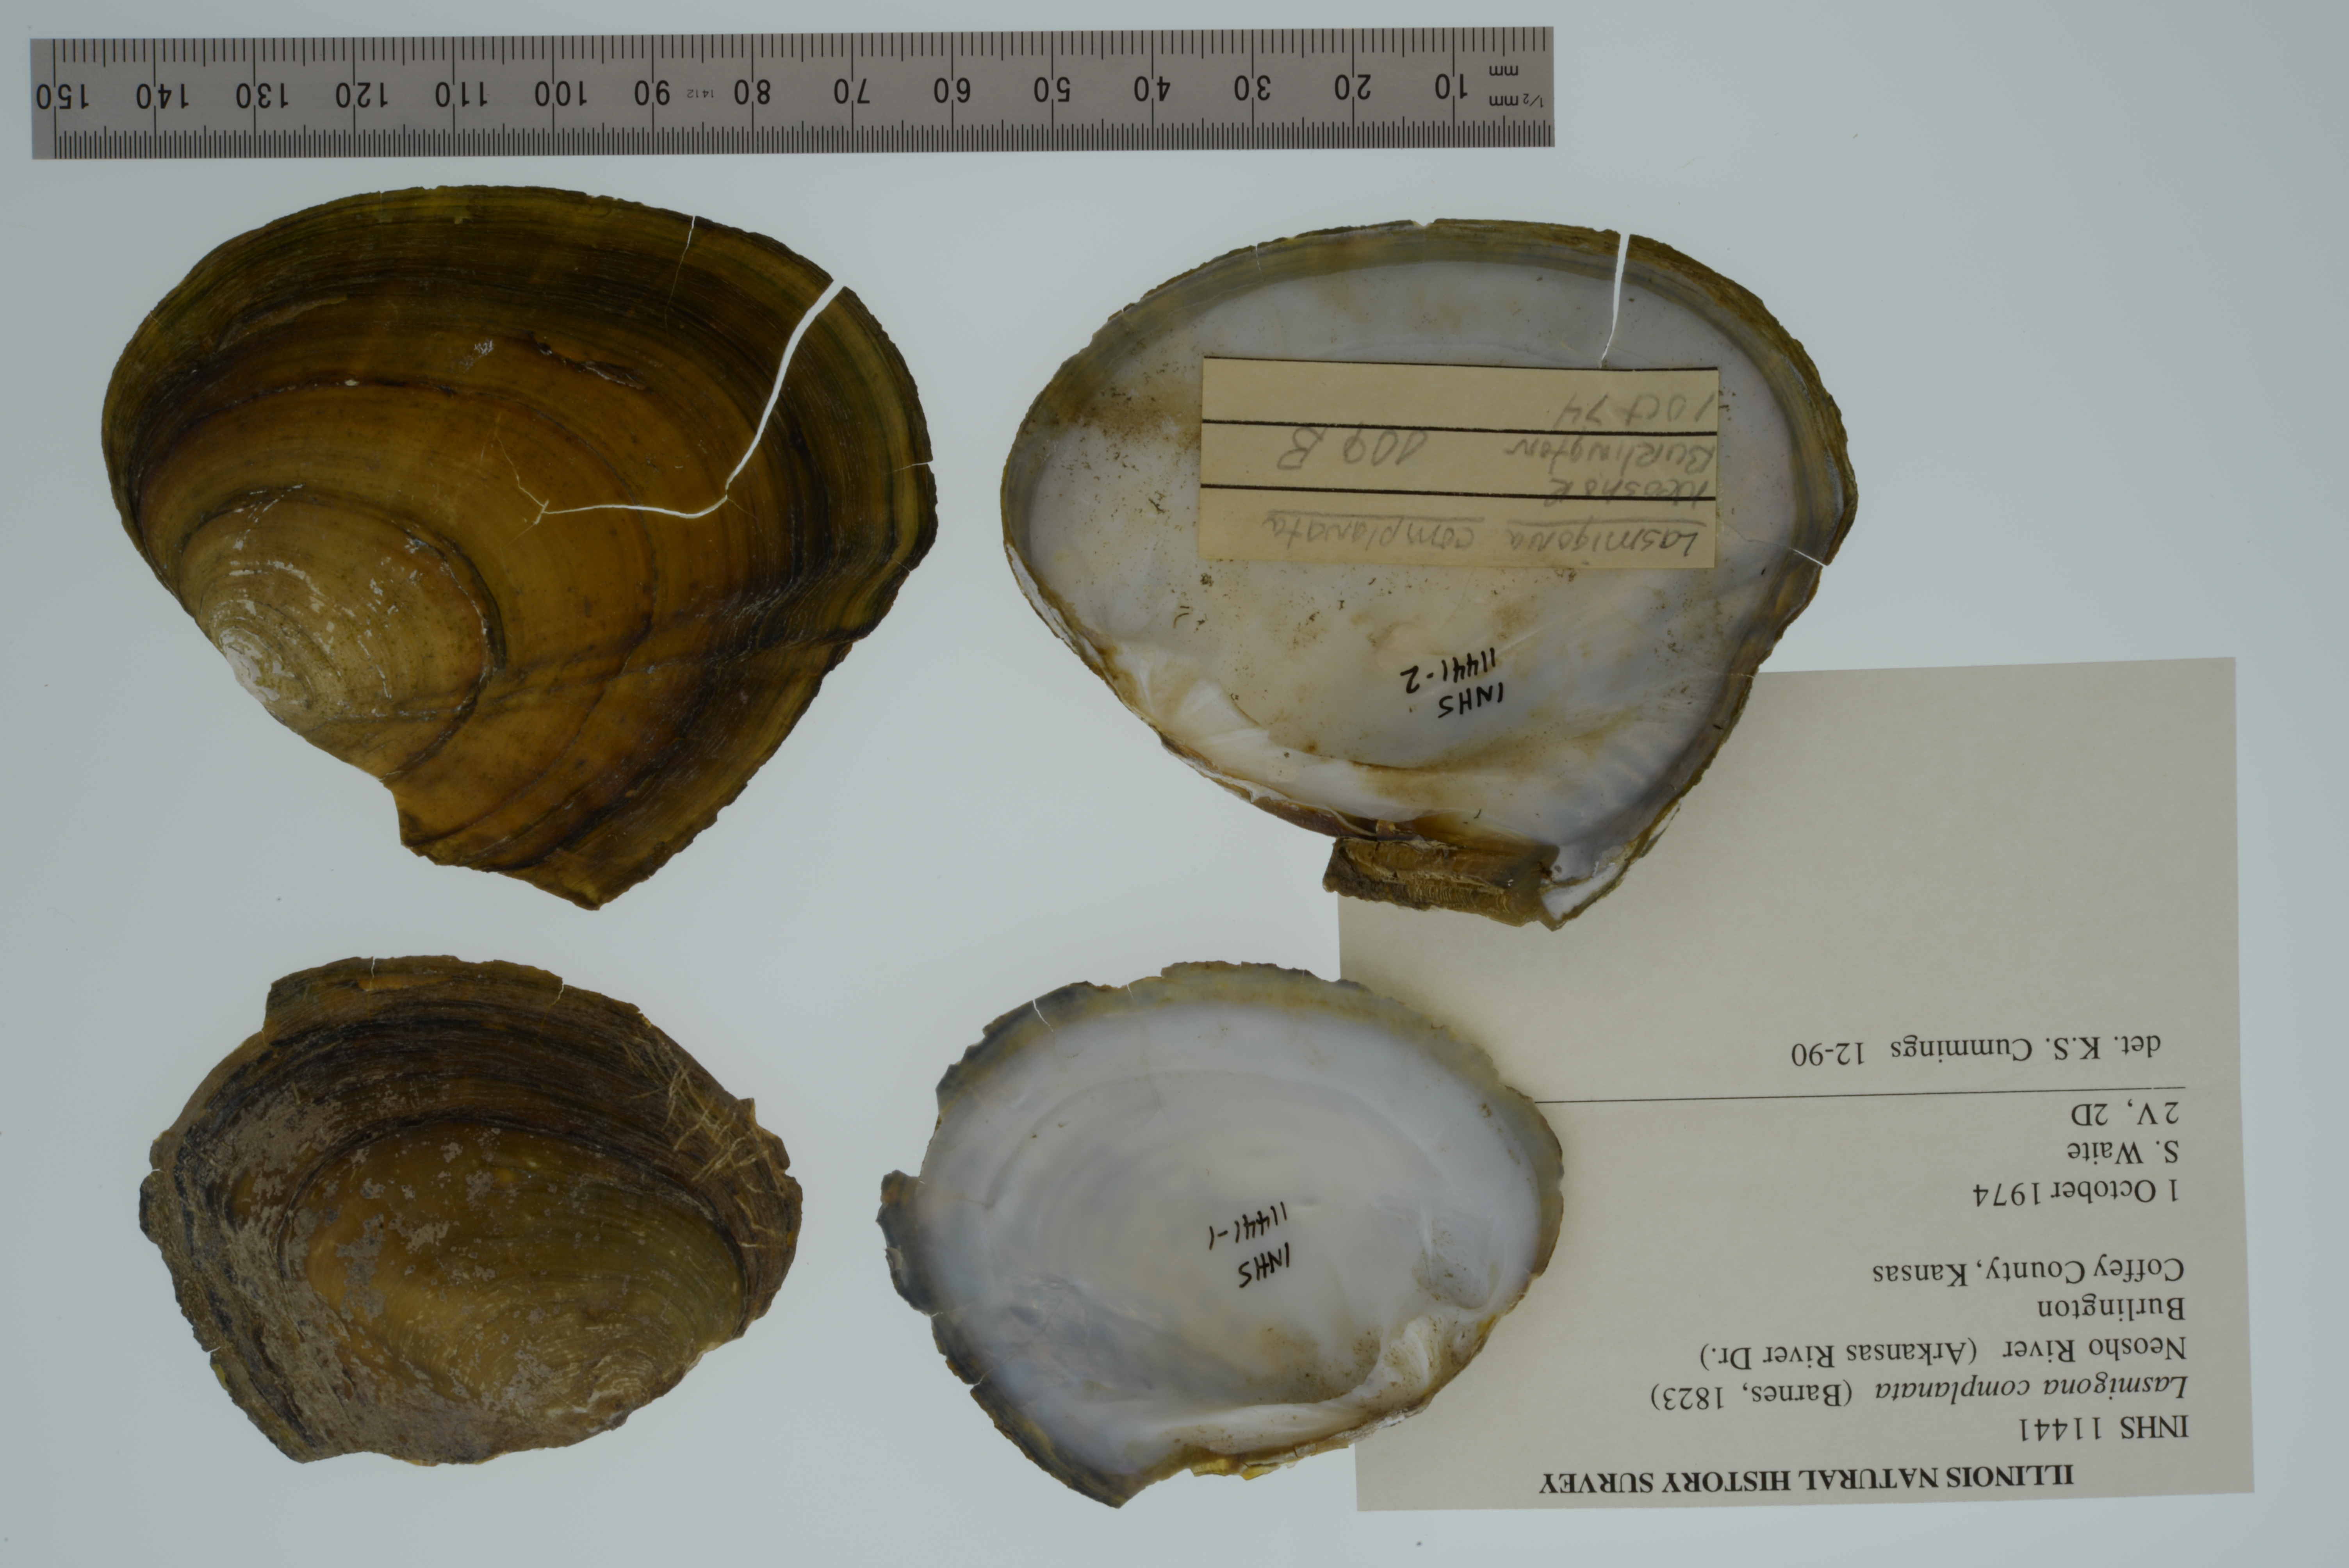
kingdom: Animalia
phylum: Mollusca
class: Bivalvia
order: Unionida
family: Unionidae
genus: Lasmigona
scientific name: Lasmigona complanata
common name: White heelsplitter
